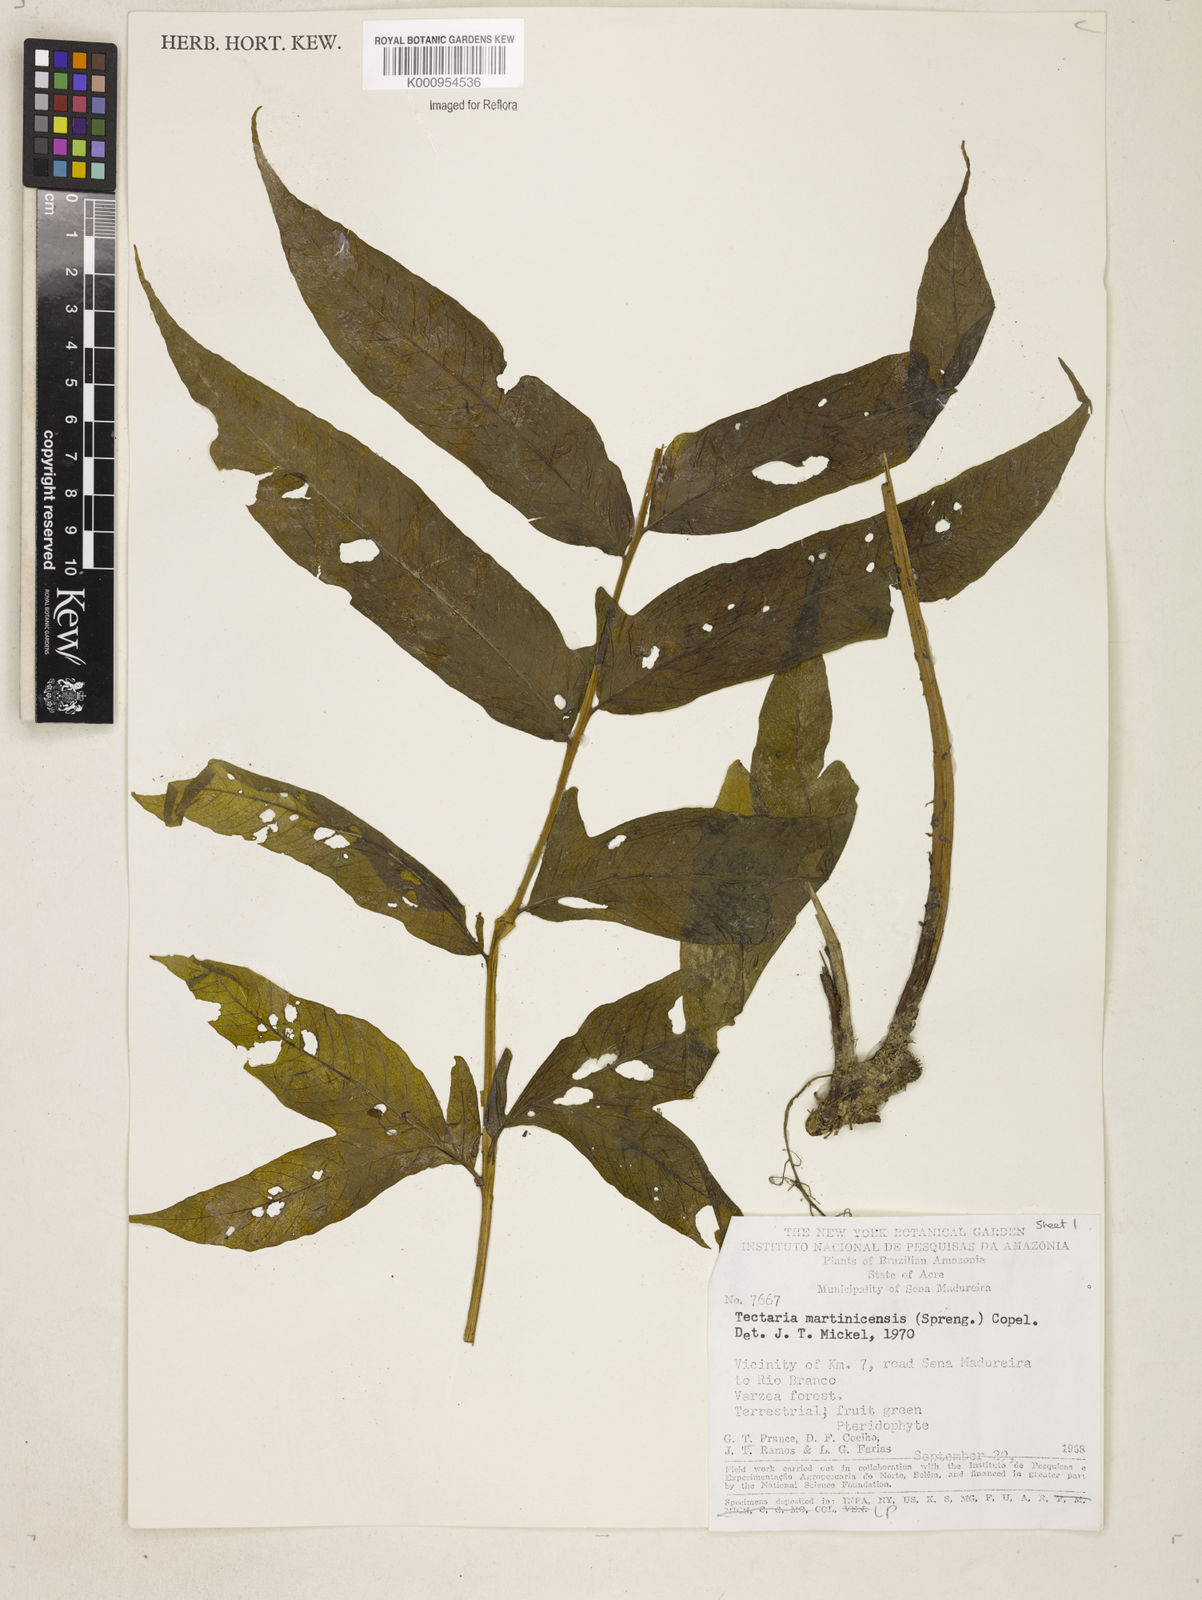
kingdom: Plantae
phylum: Tracheophyta
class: Polypodiopsida
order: Polypodiales
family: Tectariaceae
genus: Tectaria
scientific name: Tectaria incisa
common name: Incised halberd fern
